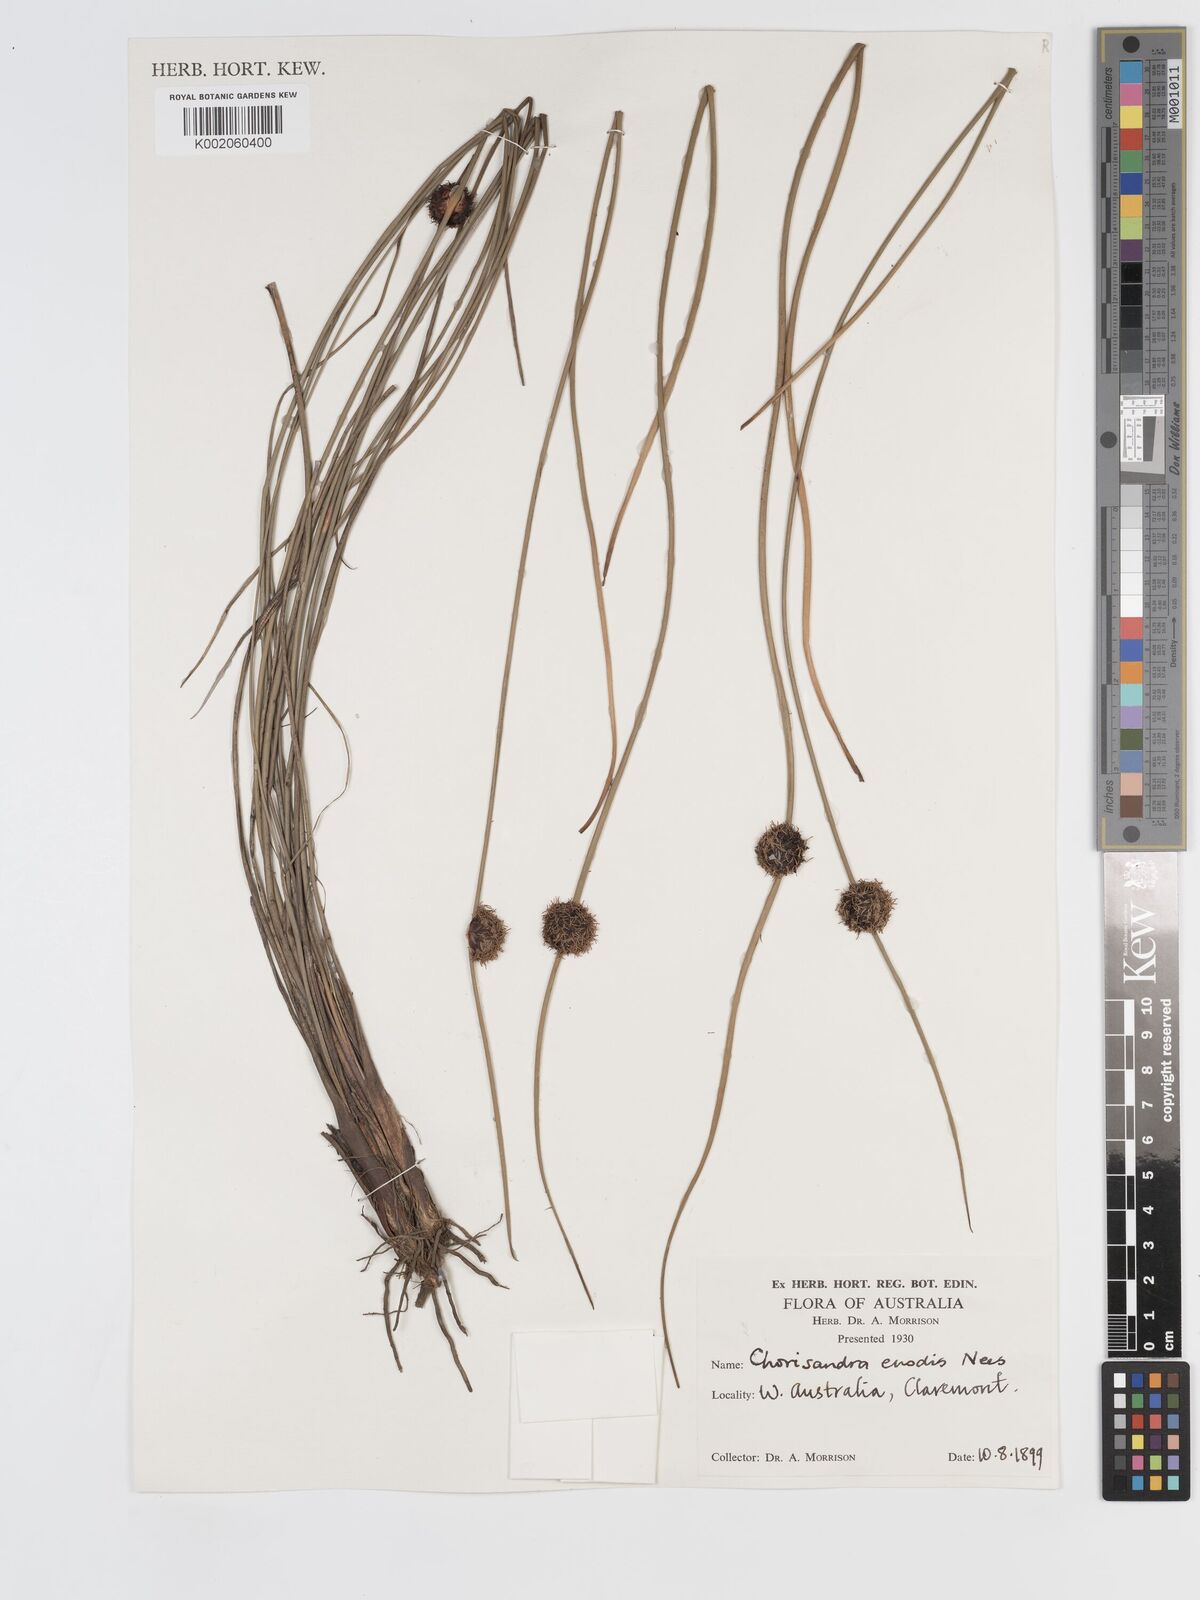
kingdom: Plantae
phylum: Tracheophyta
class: Liliopsida
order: Poales
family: Cyperaceae
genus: Chorizandra
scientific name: Chorizandra enodis
